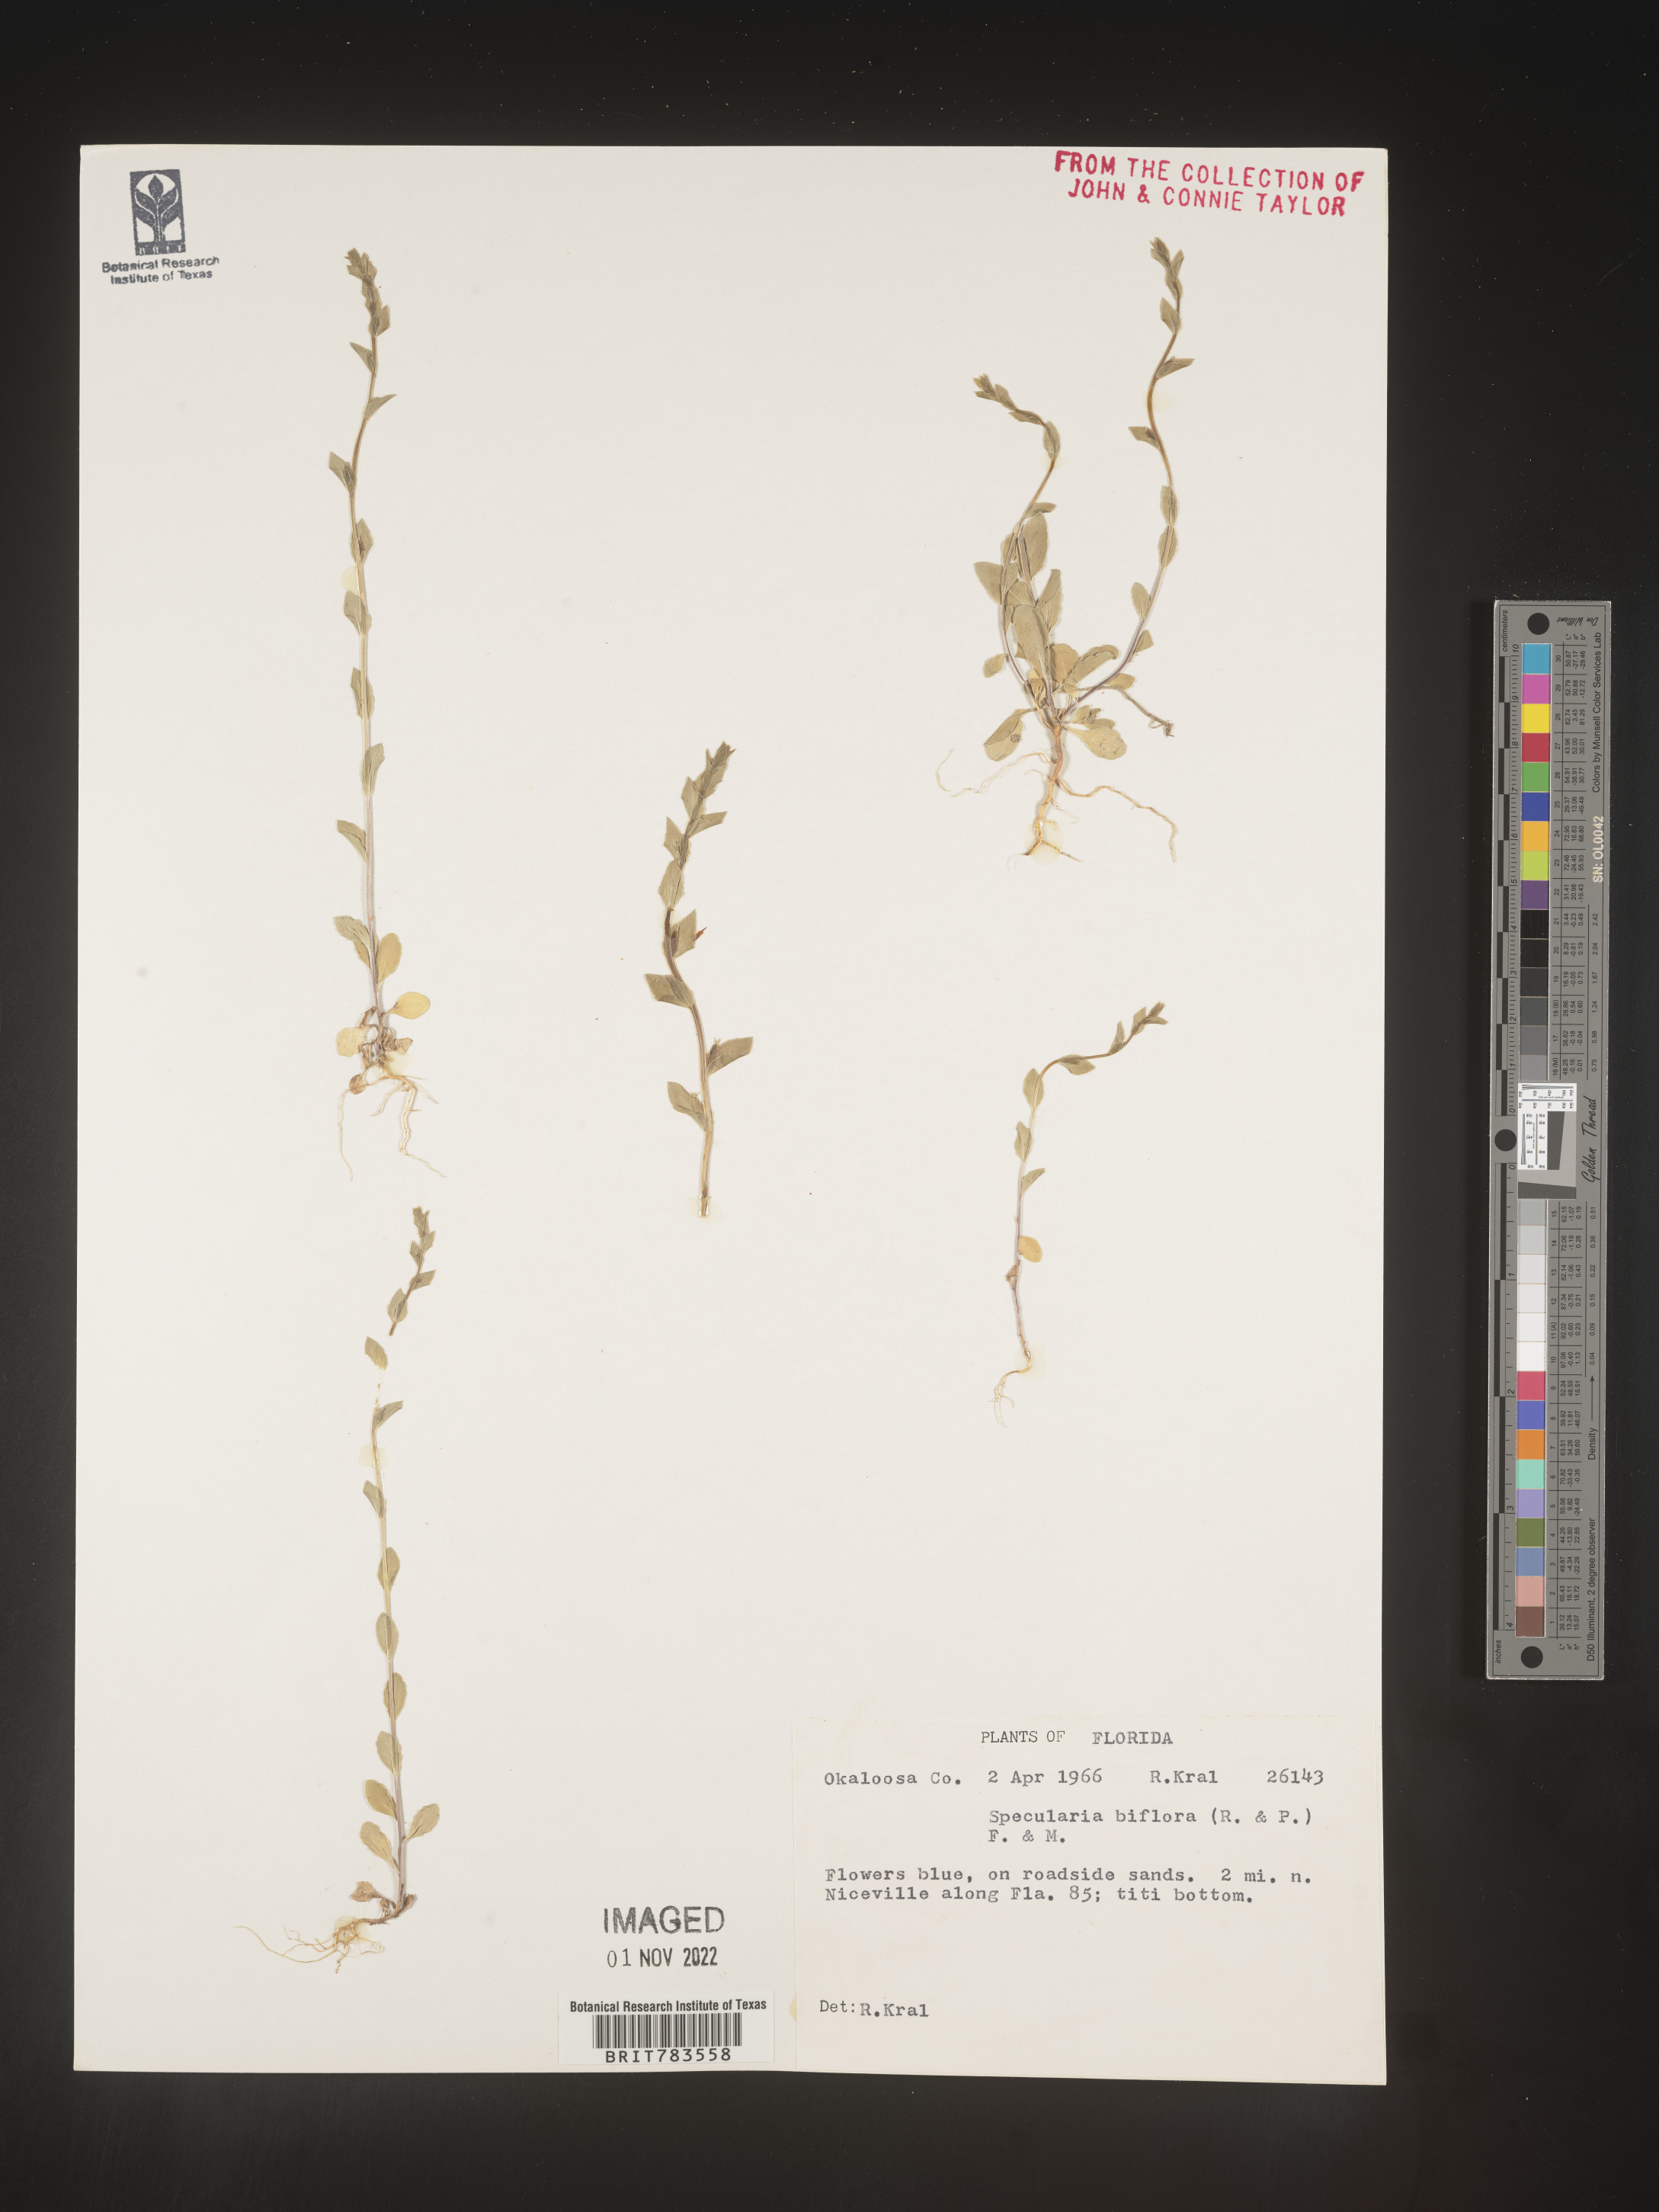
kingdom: Plantae
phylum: Tracheophyta
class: Magnoliopsida
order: Asterales
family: Campanulaceae
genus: Triodanis
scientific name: Triodanis perfoliata
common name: Clasping venus' looking-glass
